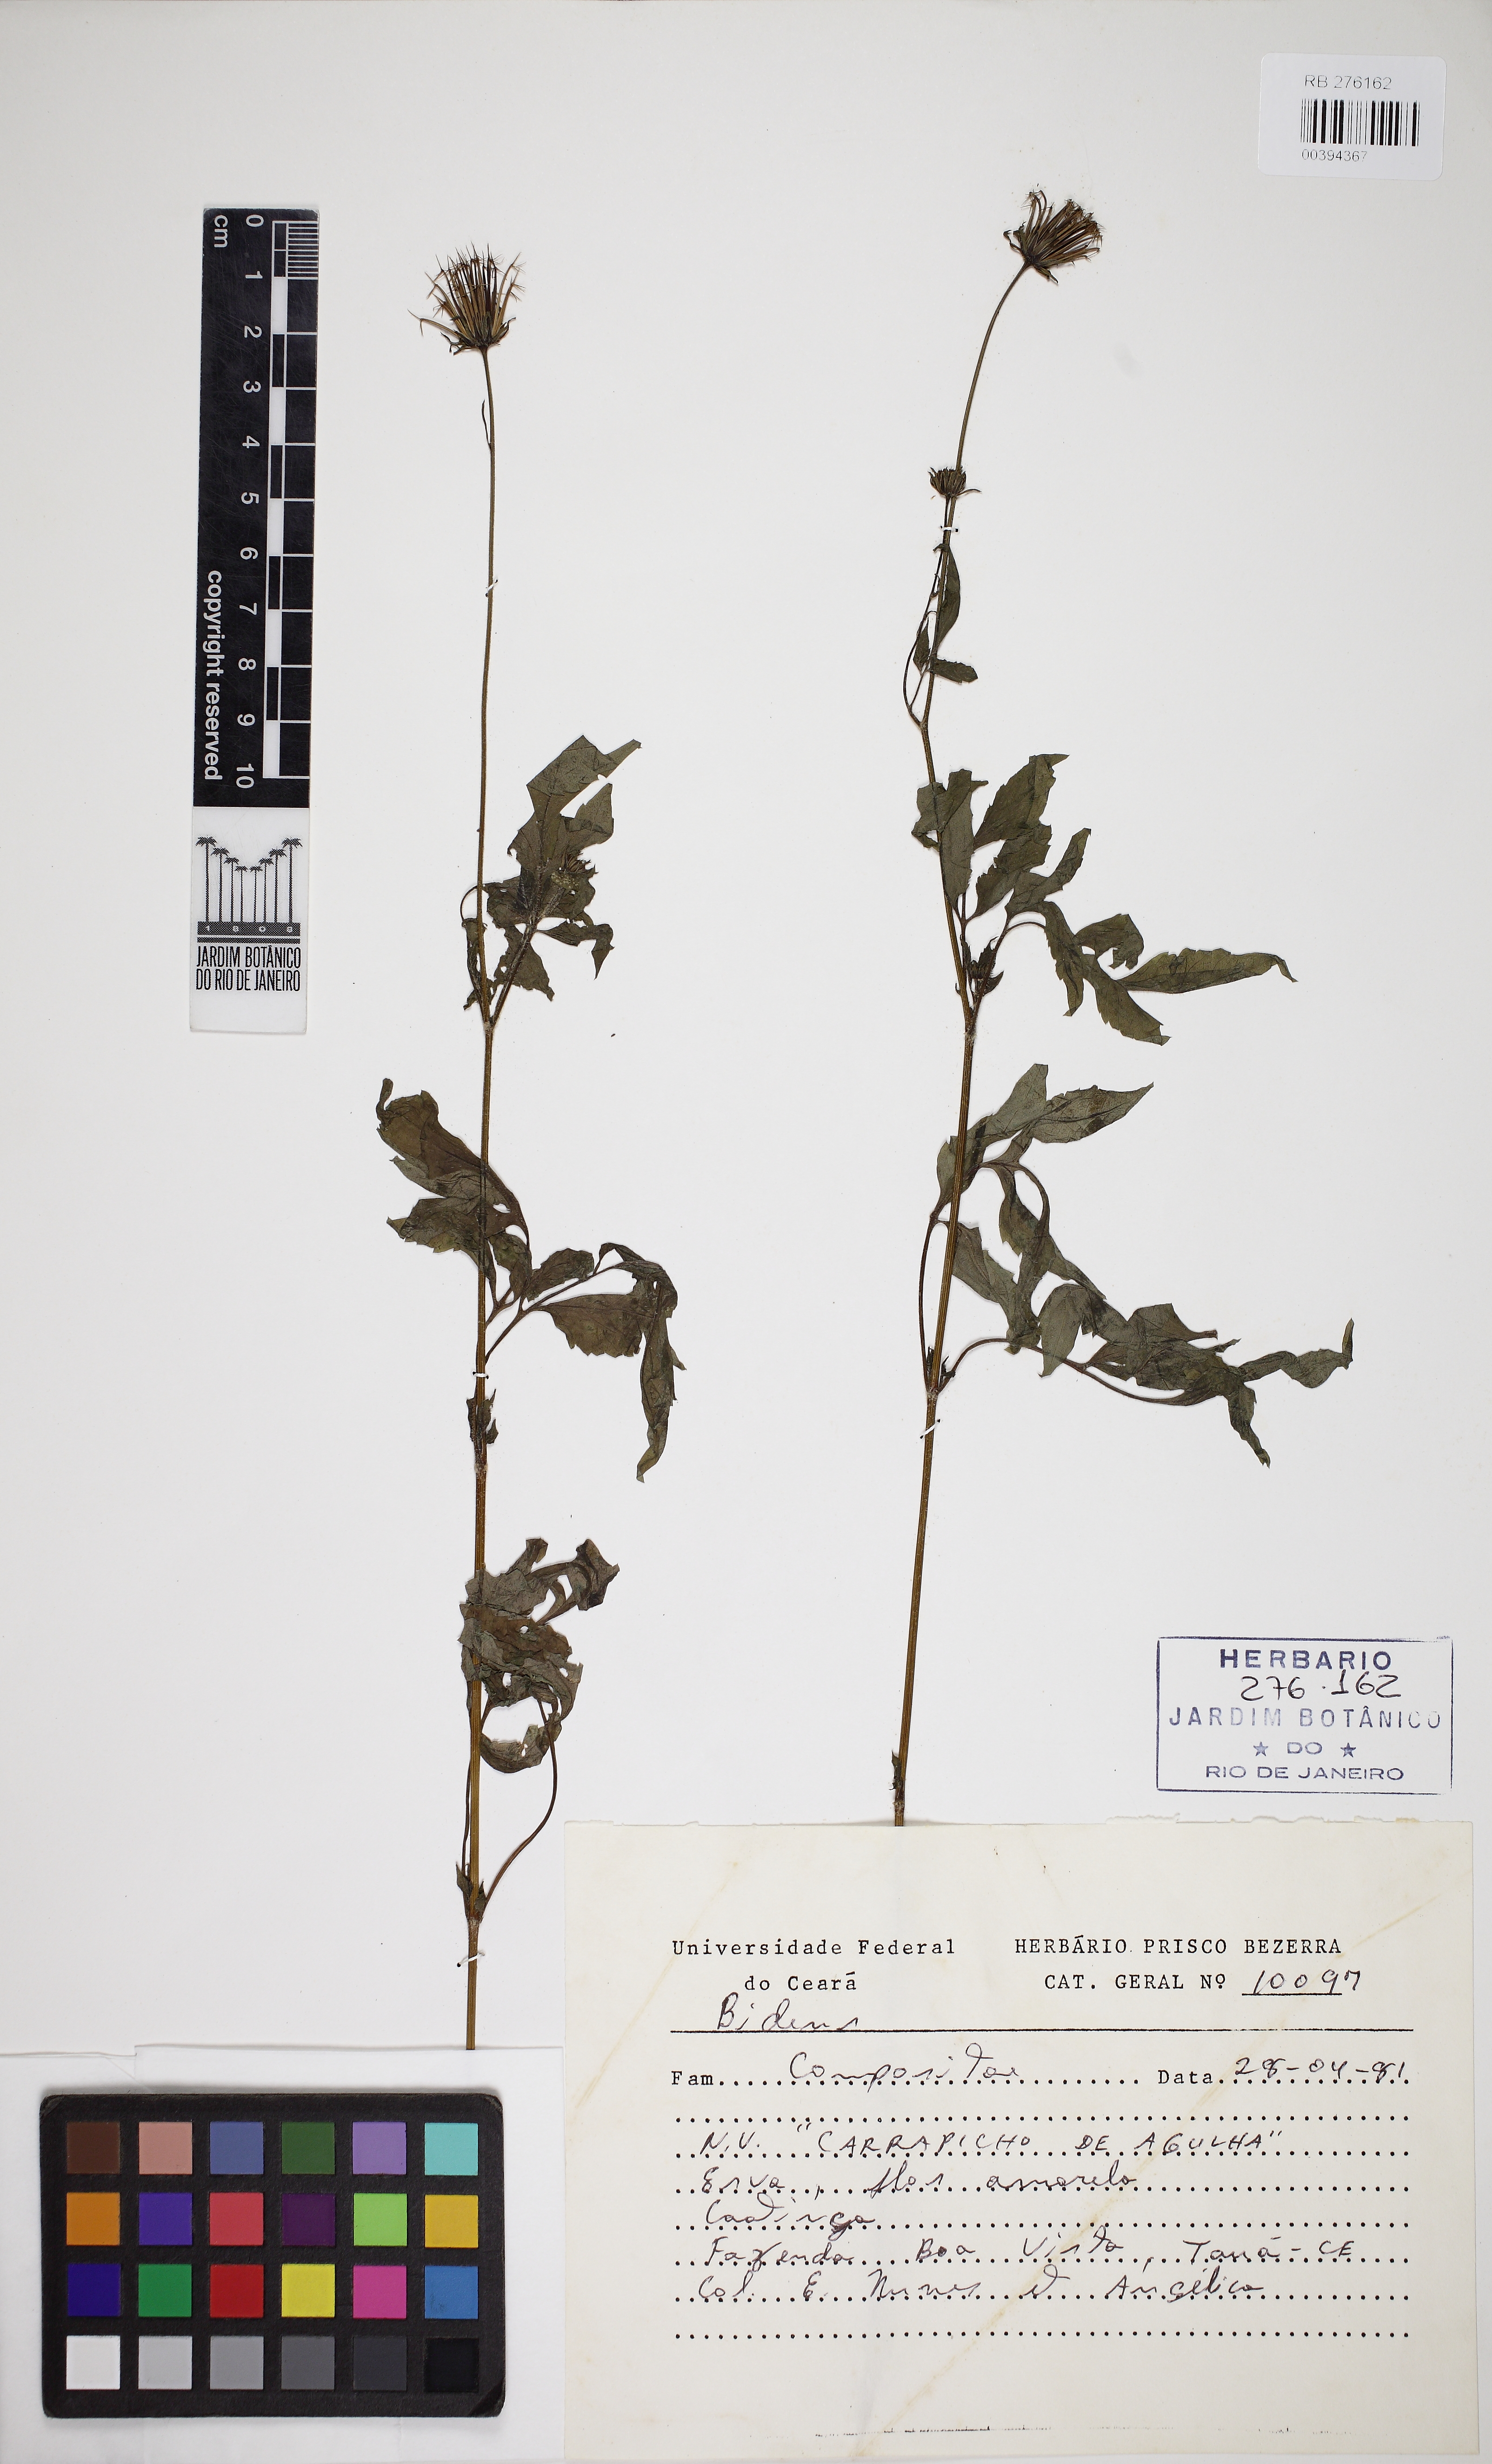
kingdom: Plantae
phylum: Tracheophyta
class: Magnoliopsida
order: Asterales
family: Asteraceae
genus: Bidens
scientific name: Bidens
